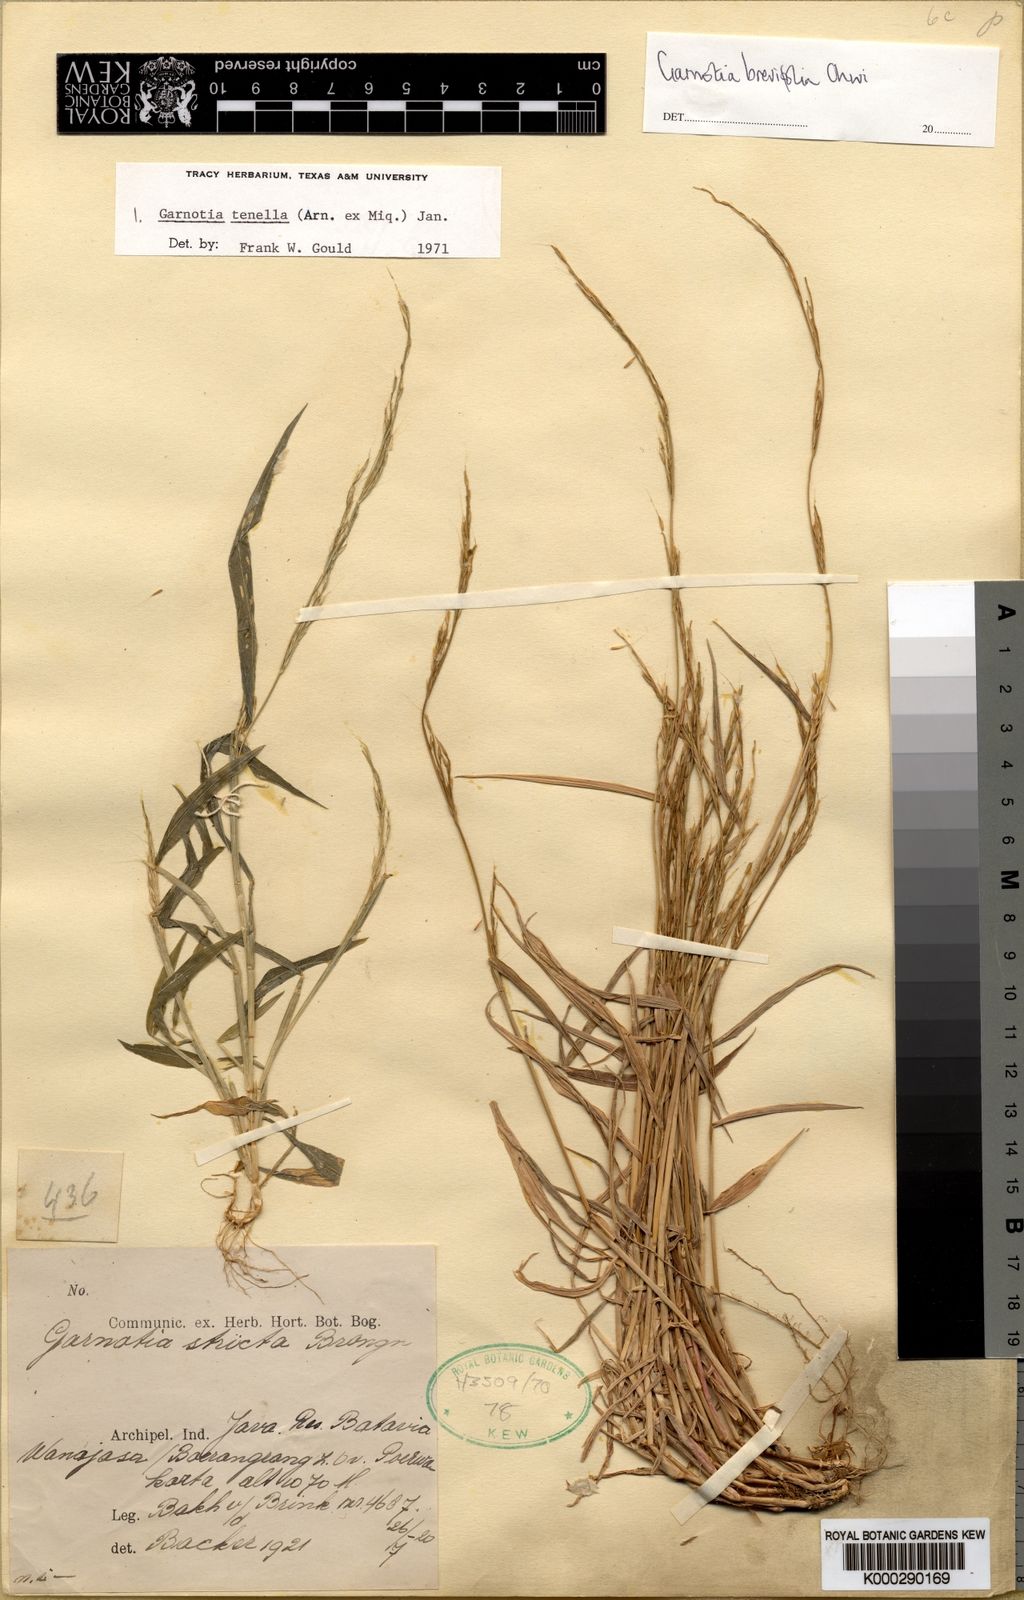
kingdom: Plantae
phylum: Tracheophyta
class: Liliopsida
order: Poales
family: Poaceae
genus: Garnotia
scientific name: Garnotia tenella
